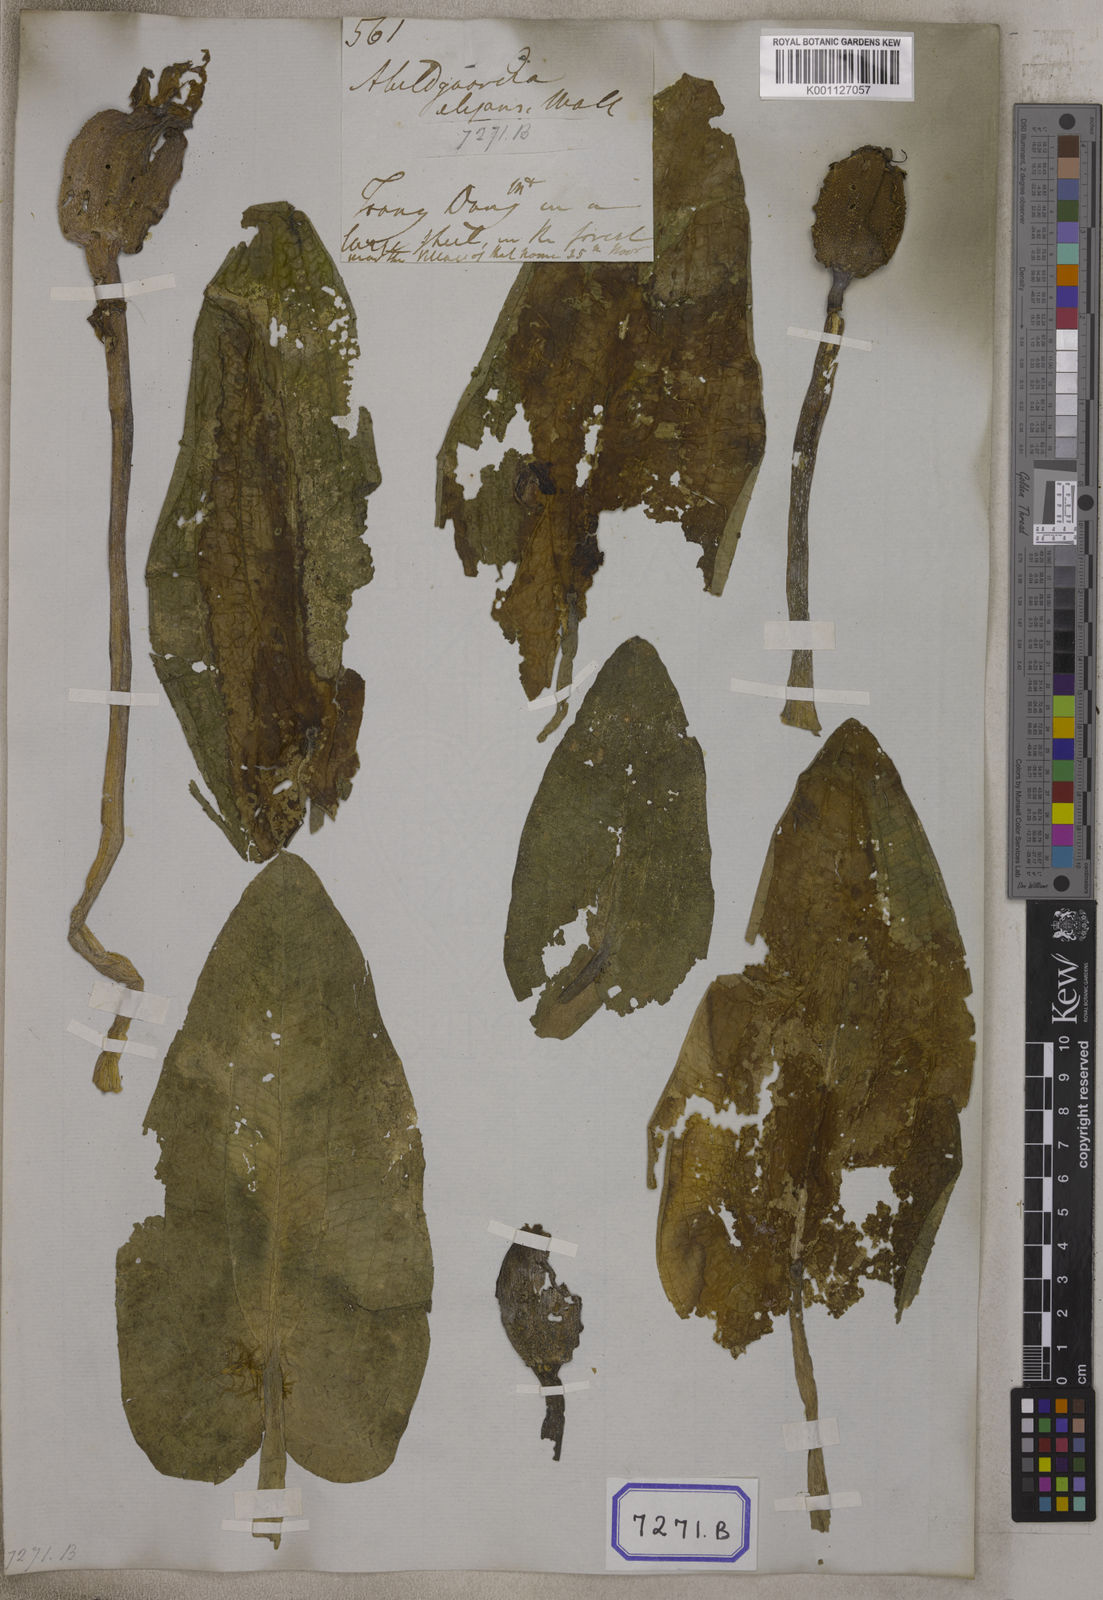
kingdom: Plantae
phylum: Tracheophyta
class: Liliopsida
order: Alismatales
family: Hydrocharitaceae
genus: Ottelia
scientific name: Ottelia cordata
